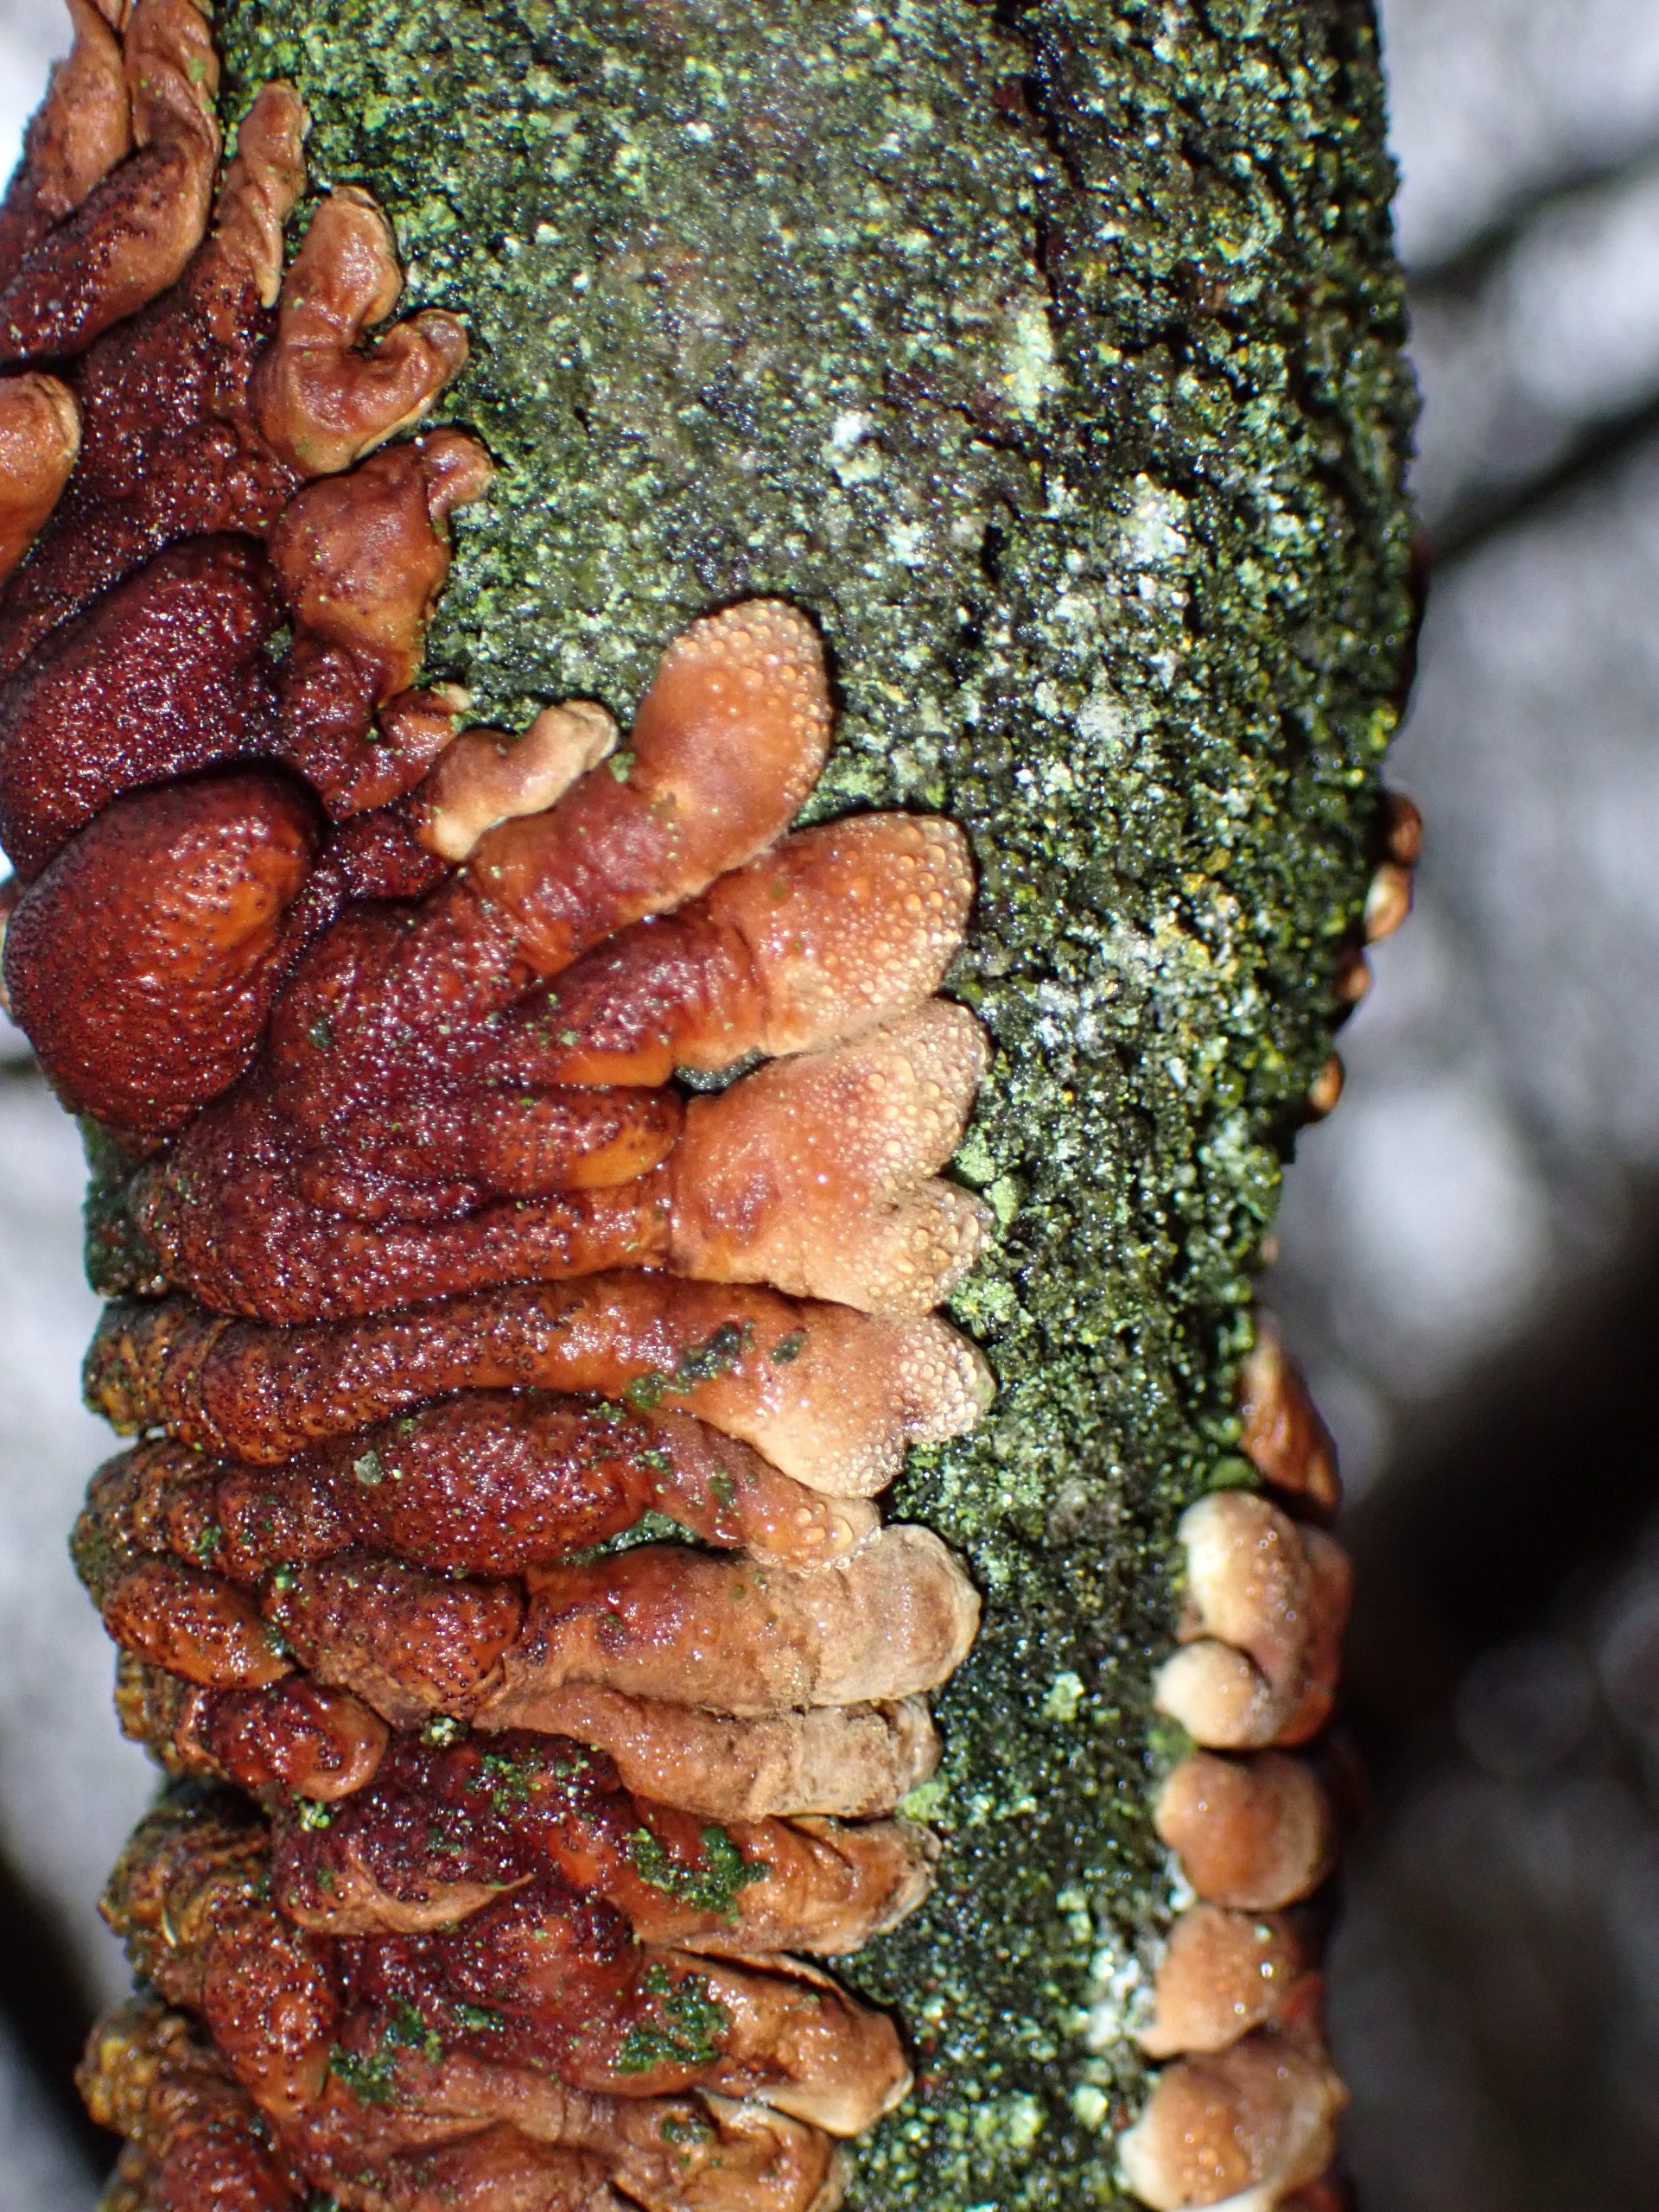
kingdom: Fungi
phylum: Ascomycota
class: Sordariomycetes
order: Hypocreales
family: Hypocreaceae
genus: Hypocreopsis
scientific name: Hypocreopsis lichenoides
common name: Pilfinger
